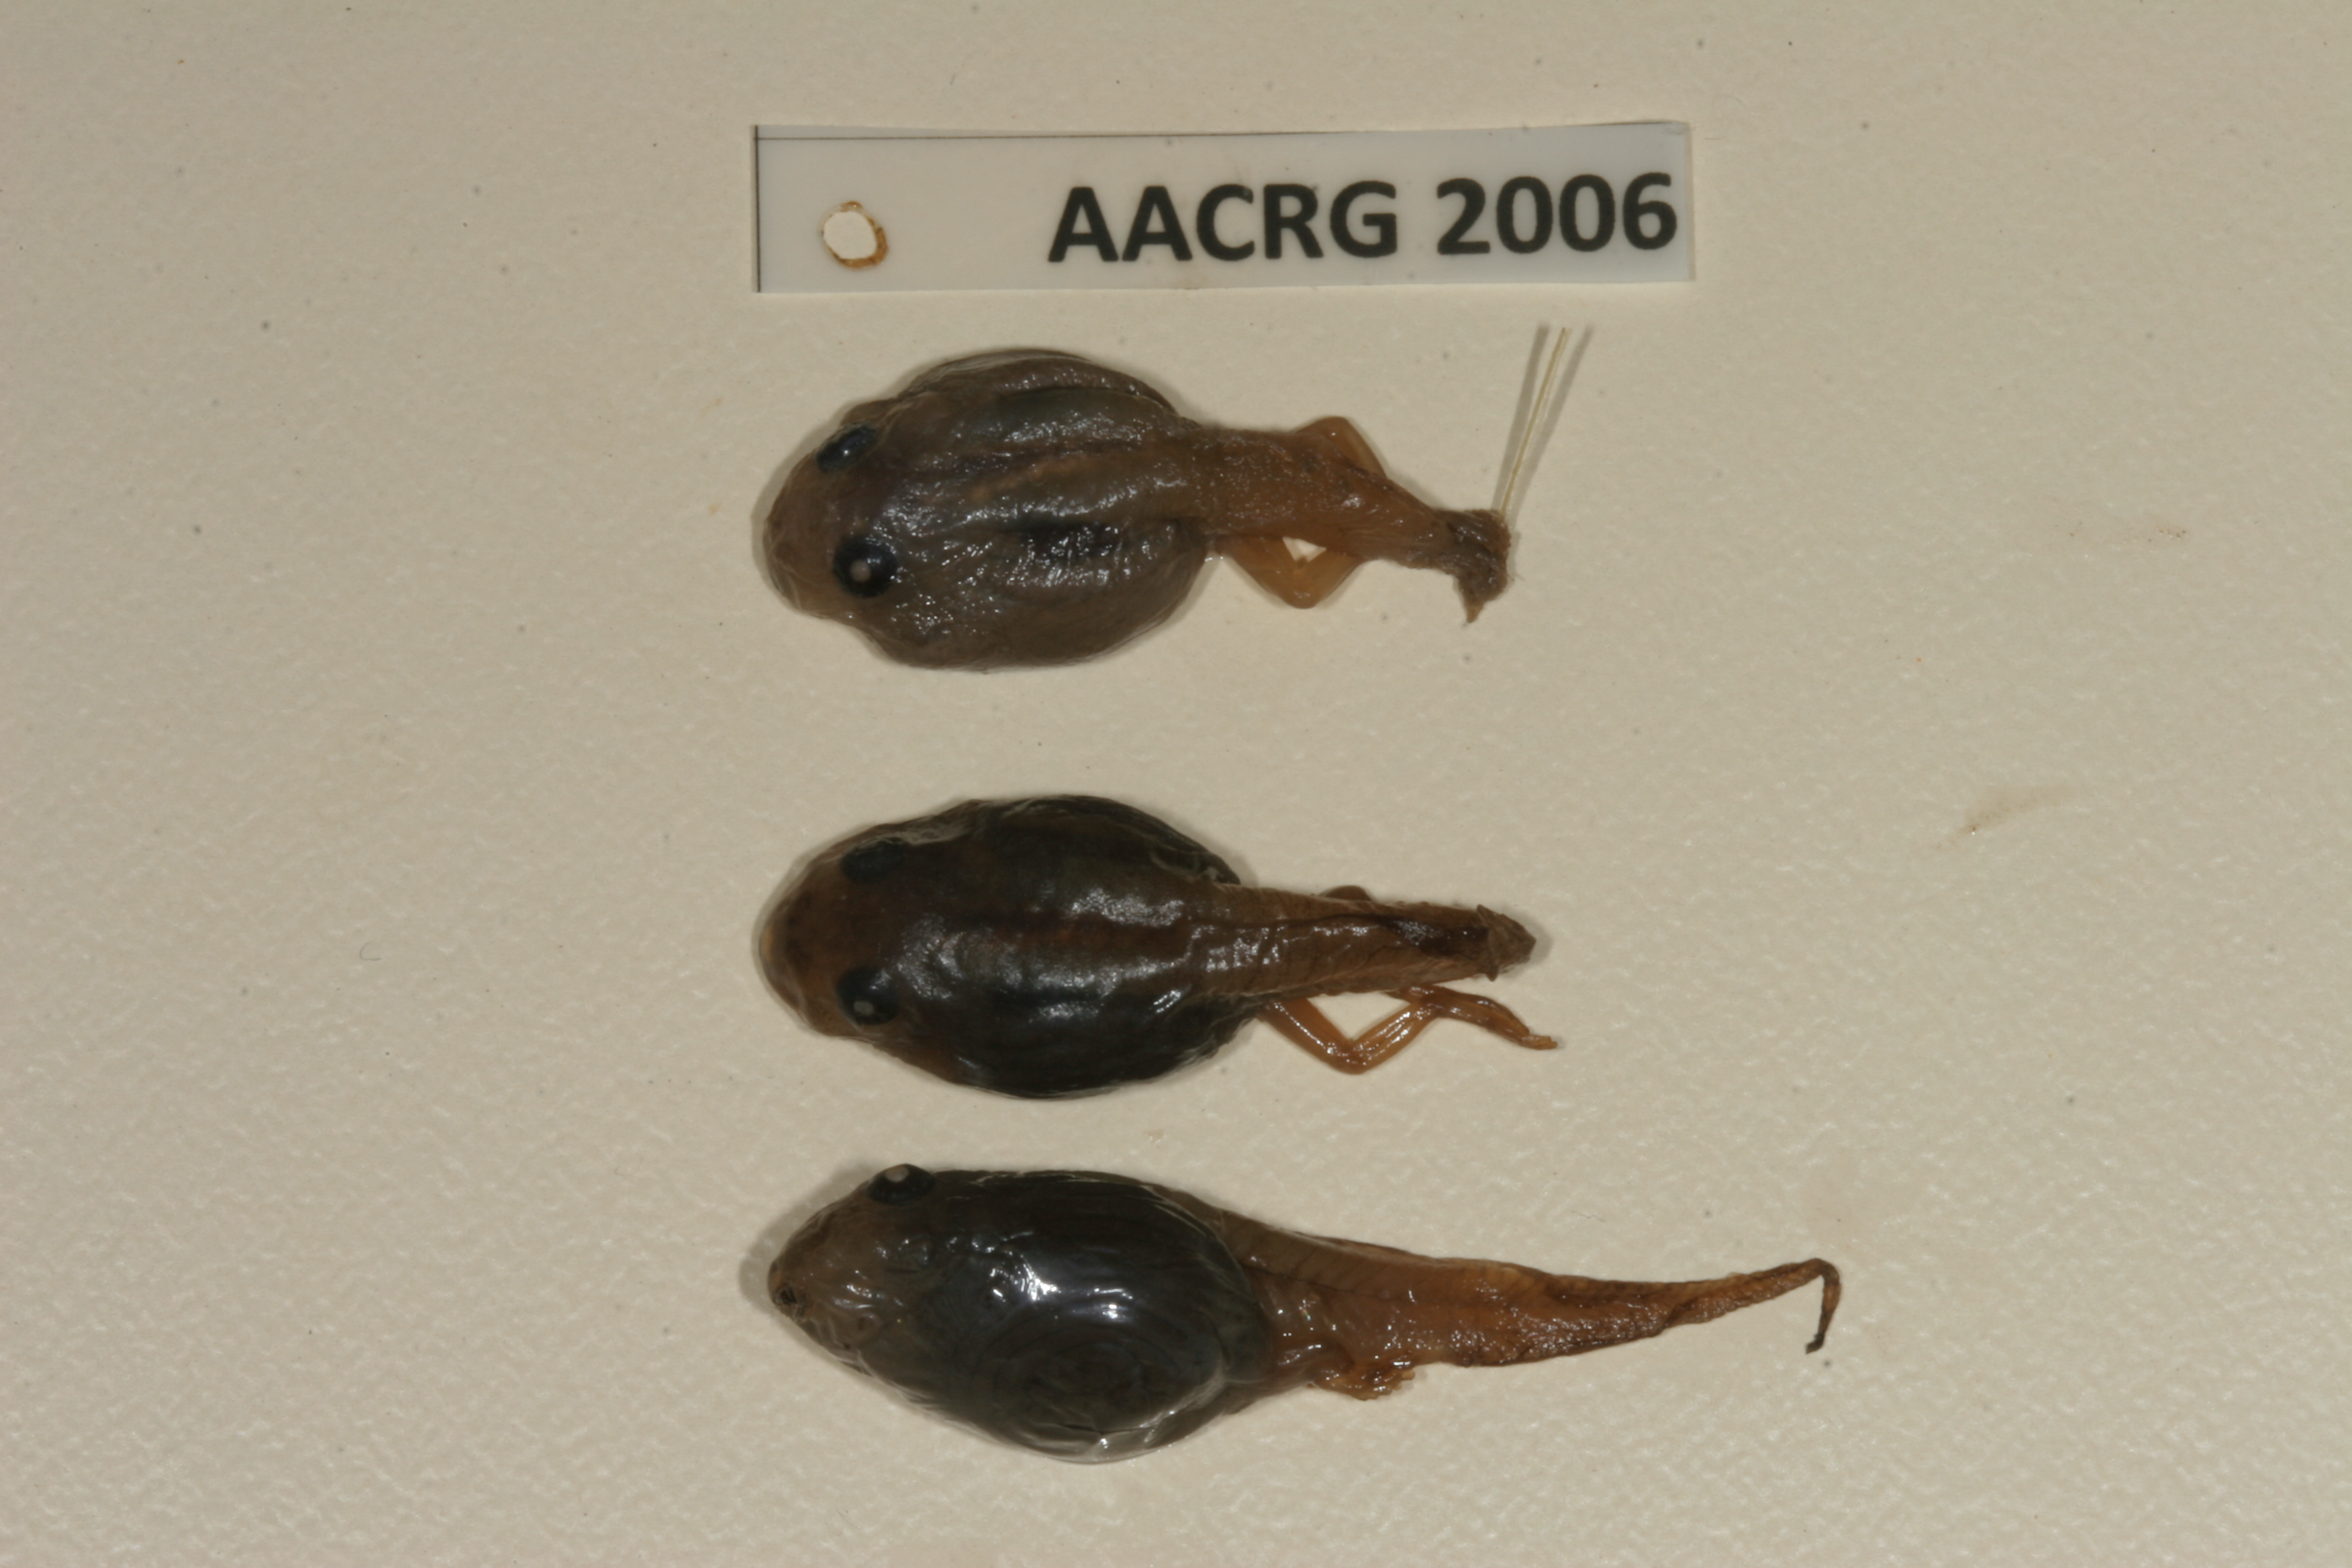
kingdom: Animalia
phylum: Chordata
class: Amphibia
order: Anura
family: Bufonidae
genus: Sclerophrys
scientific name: Sclerophrys garmani
